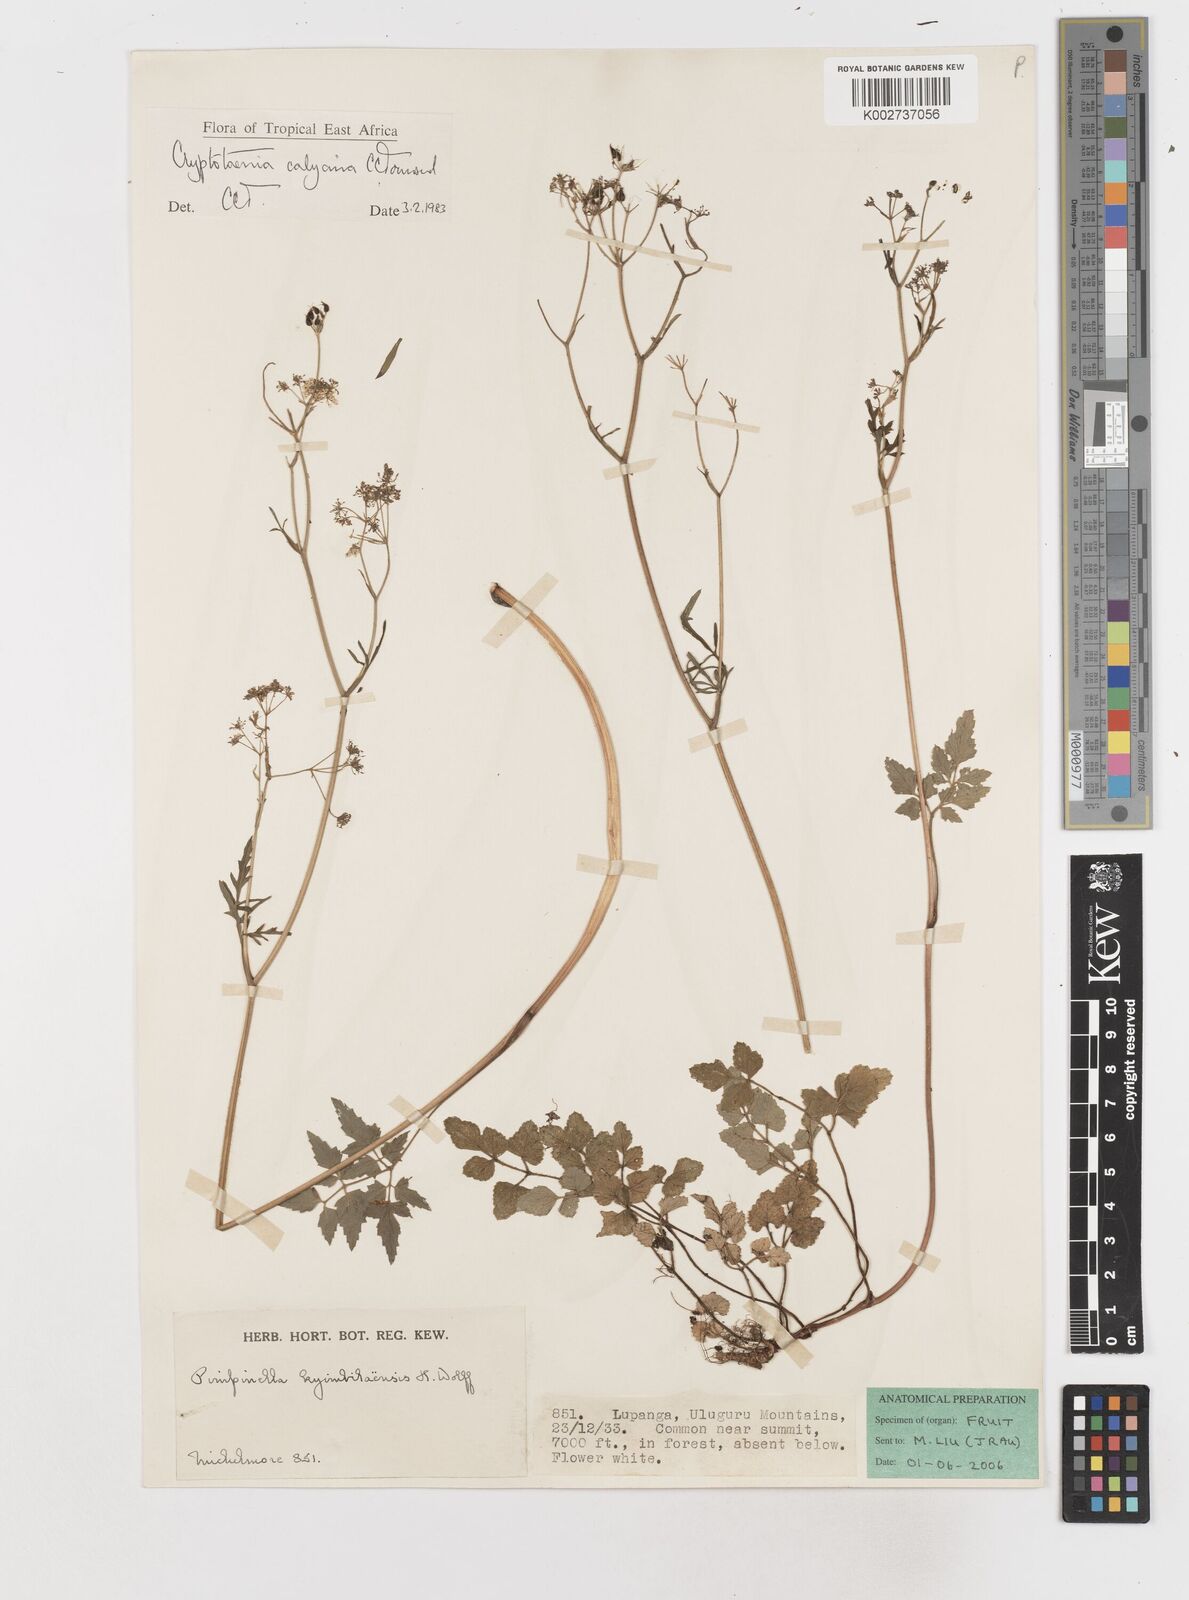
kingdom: Plantae
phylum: Tracheophyta
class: Magnoliopsida
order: Apiales
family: Apiaceae
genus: Cryptotaenia
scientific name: Cryptotaenia calycina
